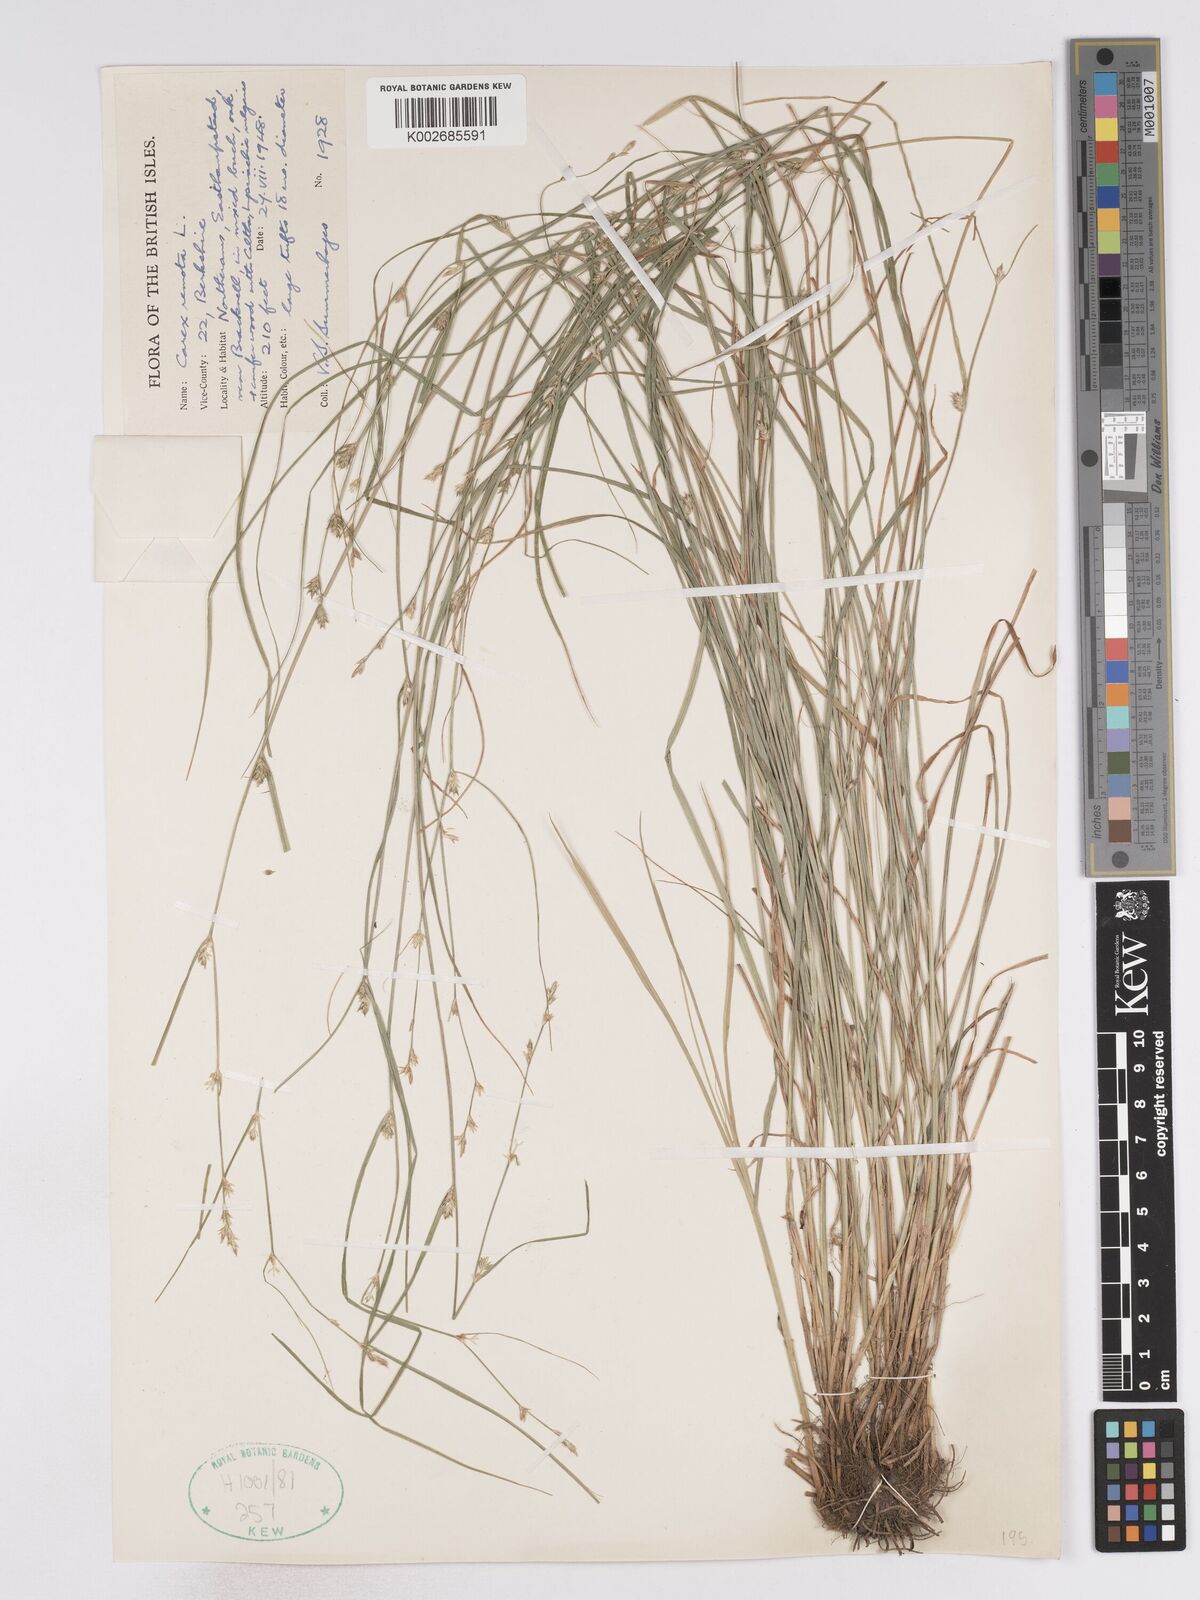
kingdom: Plantae
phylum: Tracheophyta
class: Liliopsida
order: Poales
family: Cyperaceae
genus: Carex
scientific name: Carex remota
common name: Remote sedge
